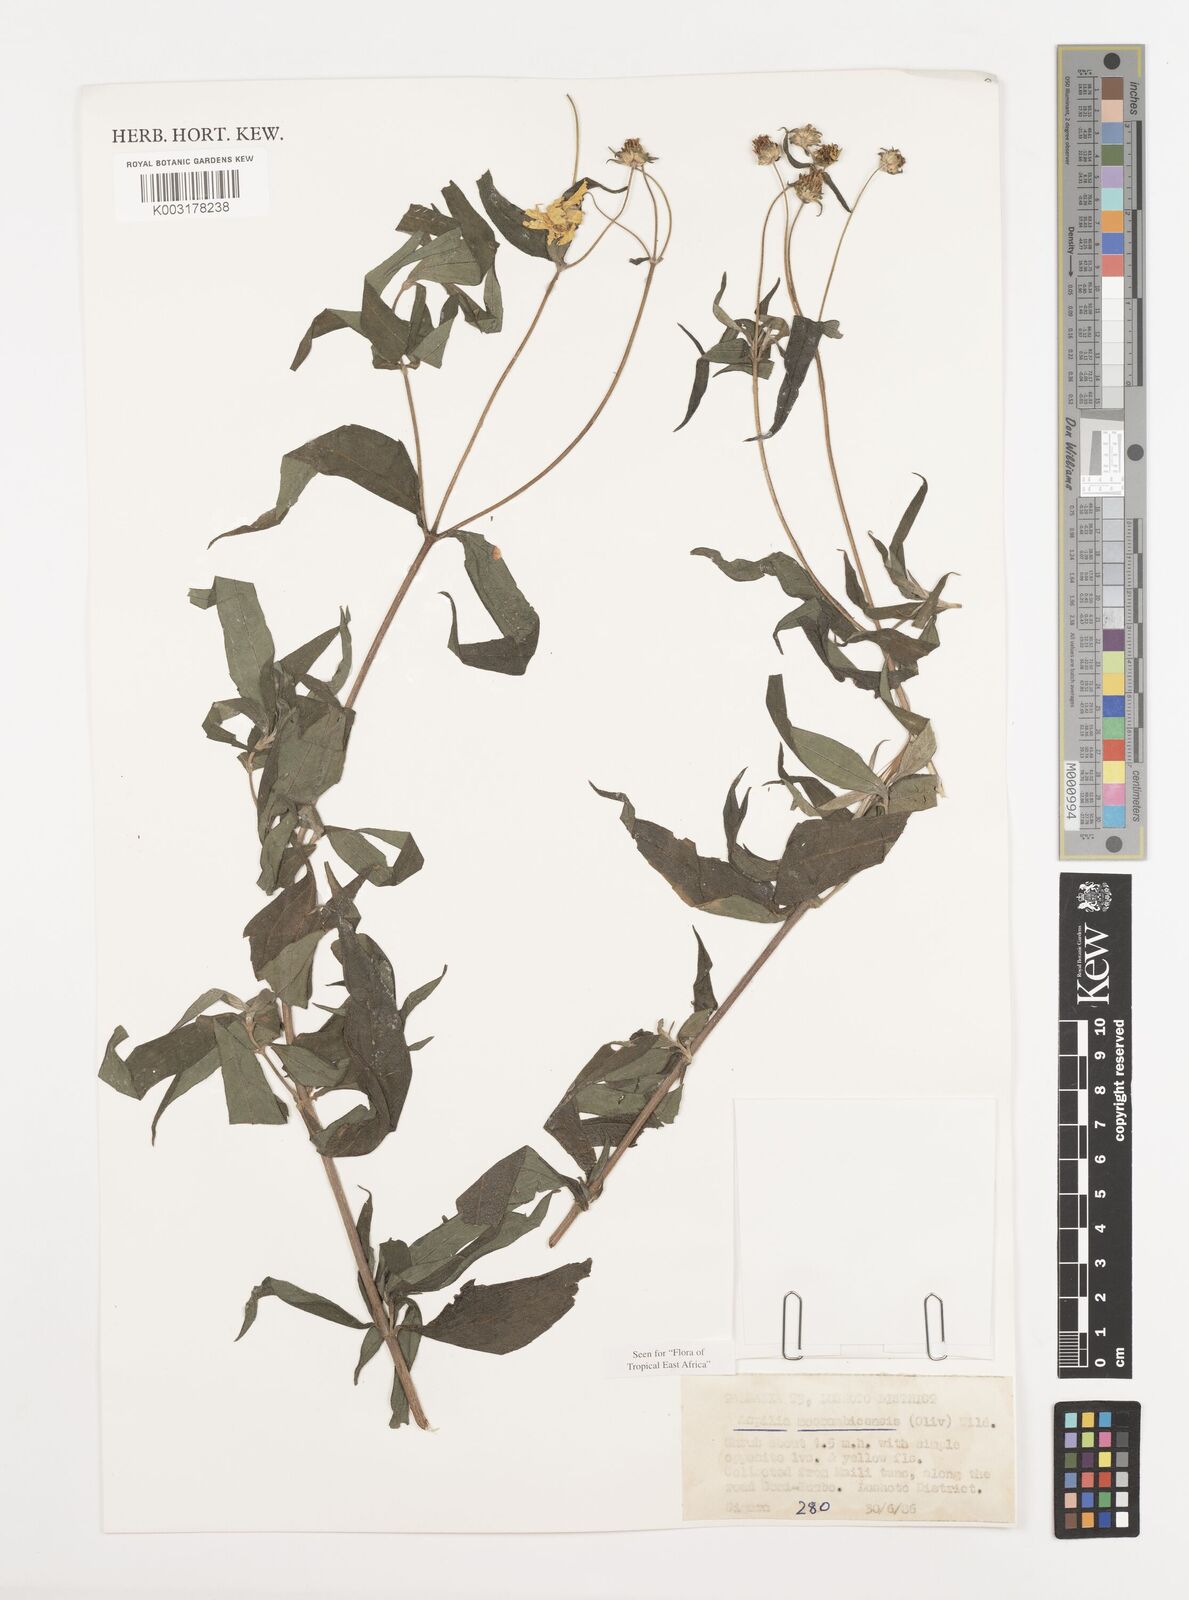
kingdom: Plantae
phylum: Tracheophyta
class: Magnoliopsida
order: Asterales
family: Asteraceae
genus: Aspilia
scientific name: Aspilia mossambicensis
